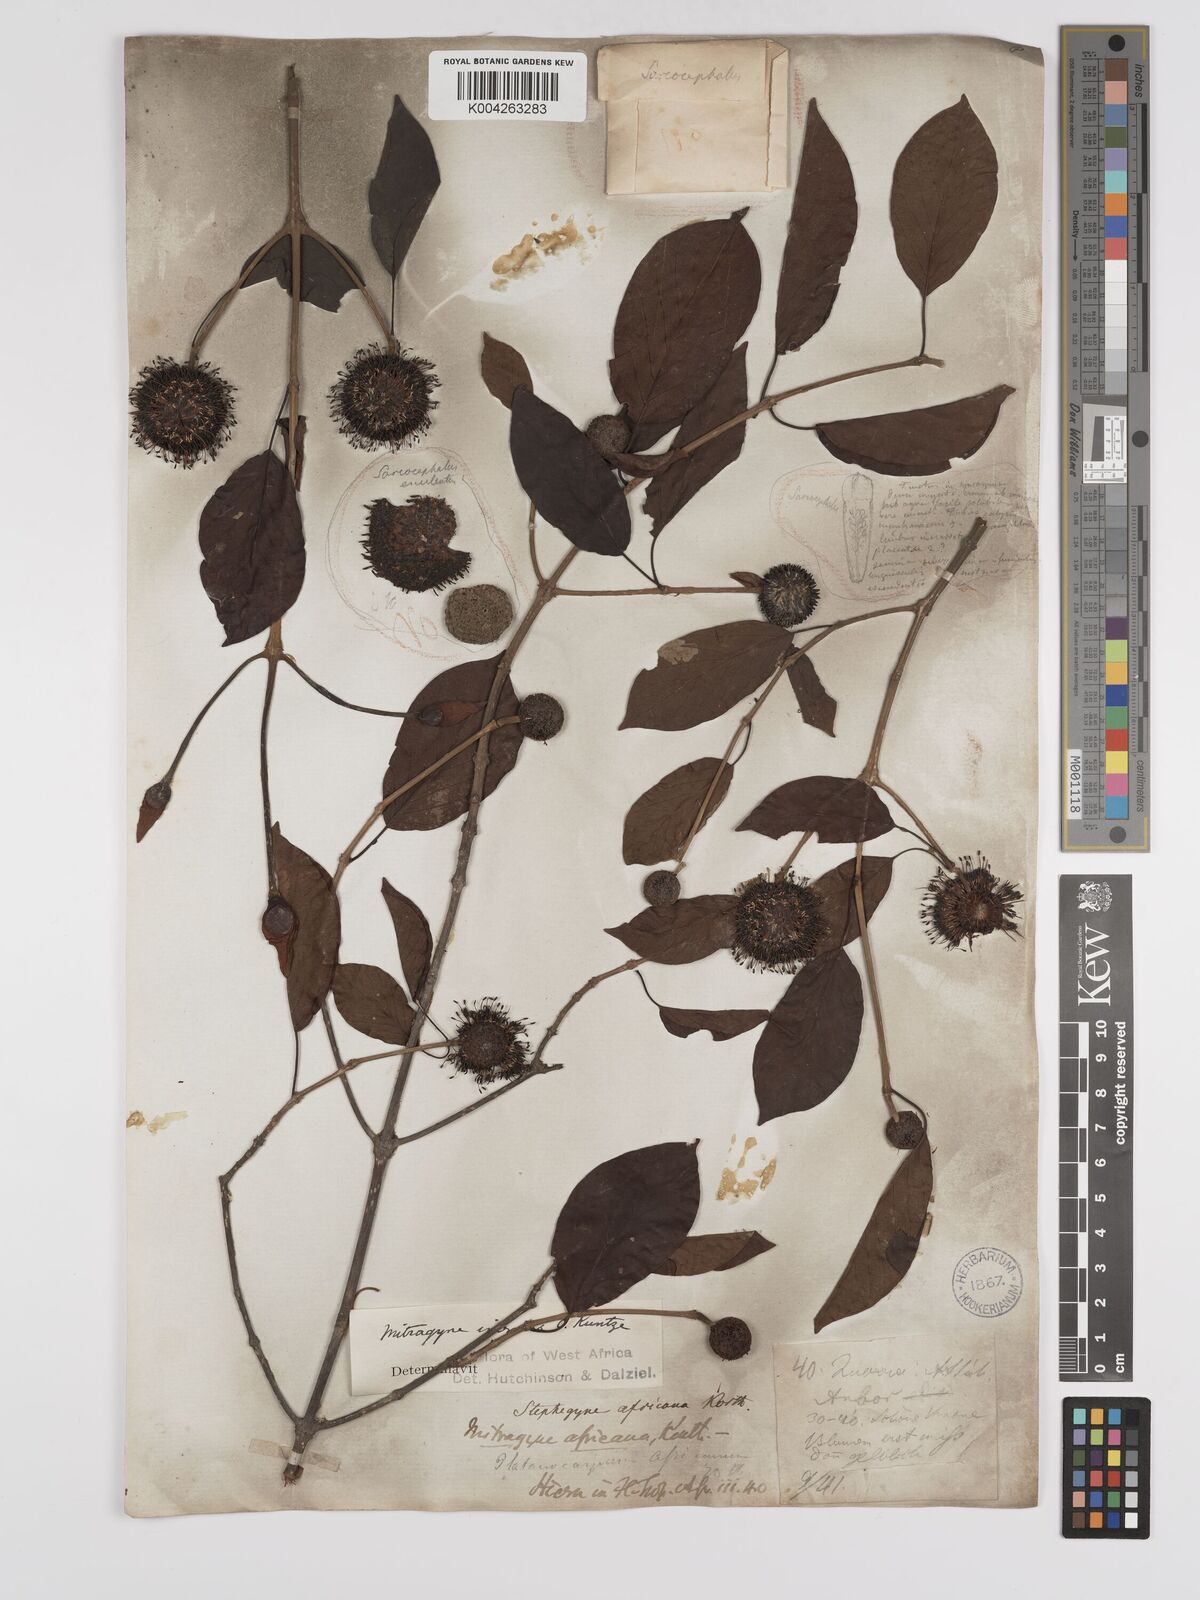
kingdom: Plantae
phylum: Tracheophyta
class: Magnoliopsida
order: Gentianales
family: Rubiaceae
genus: Mitragyna
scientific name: Mitragyna inermis
